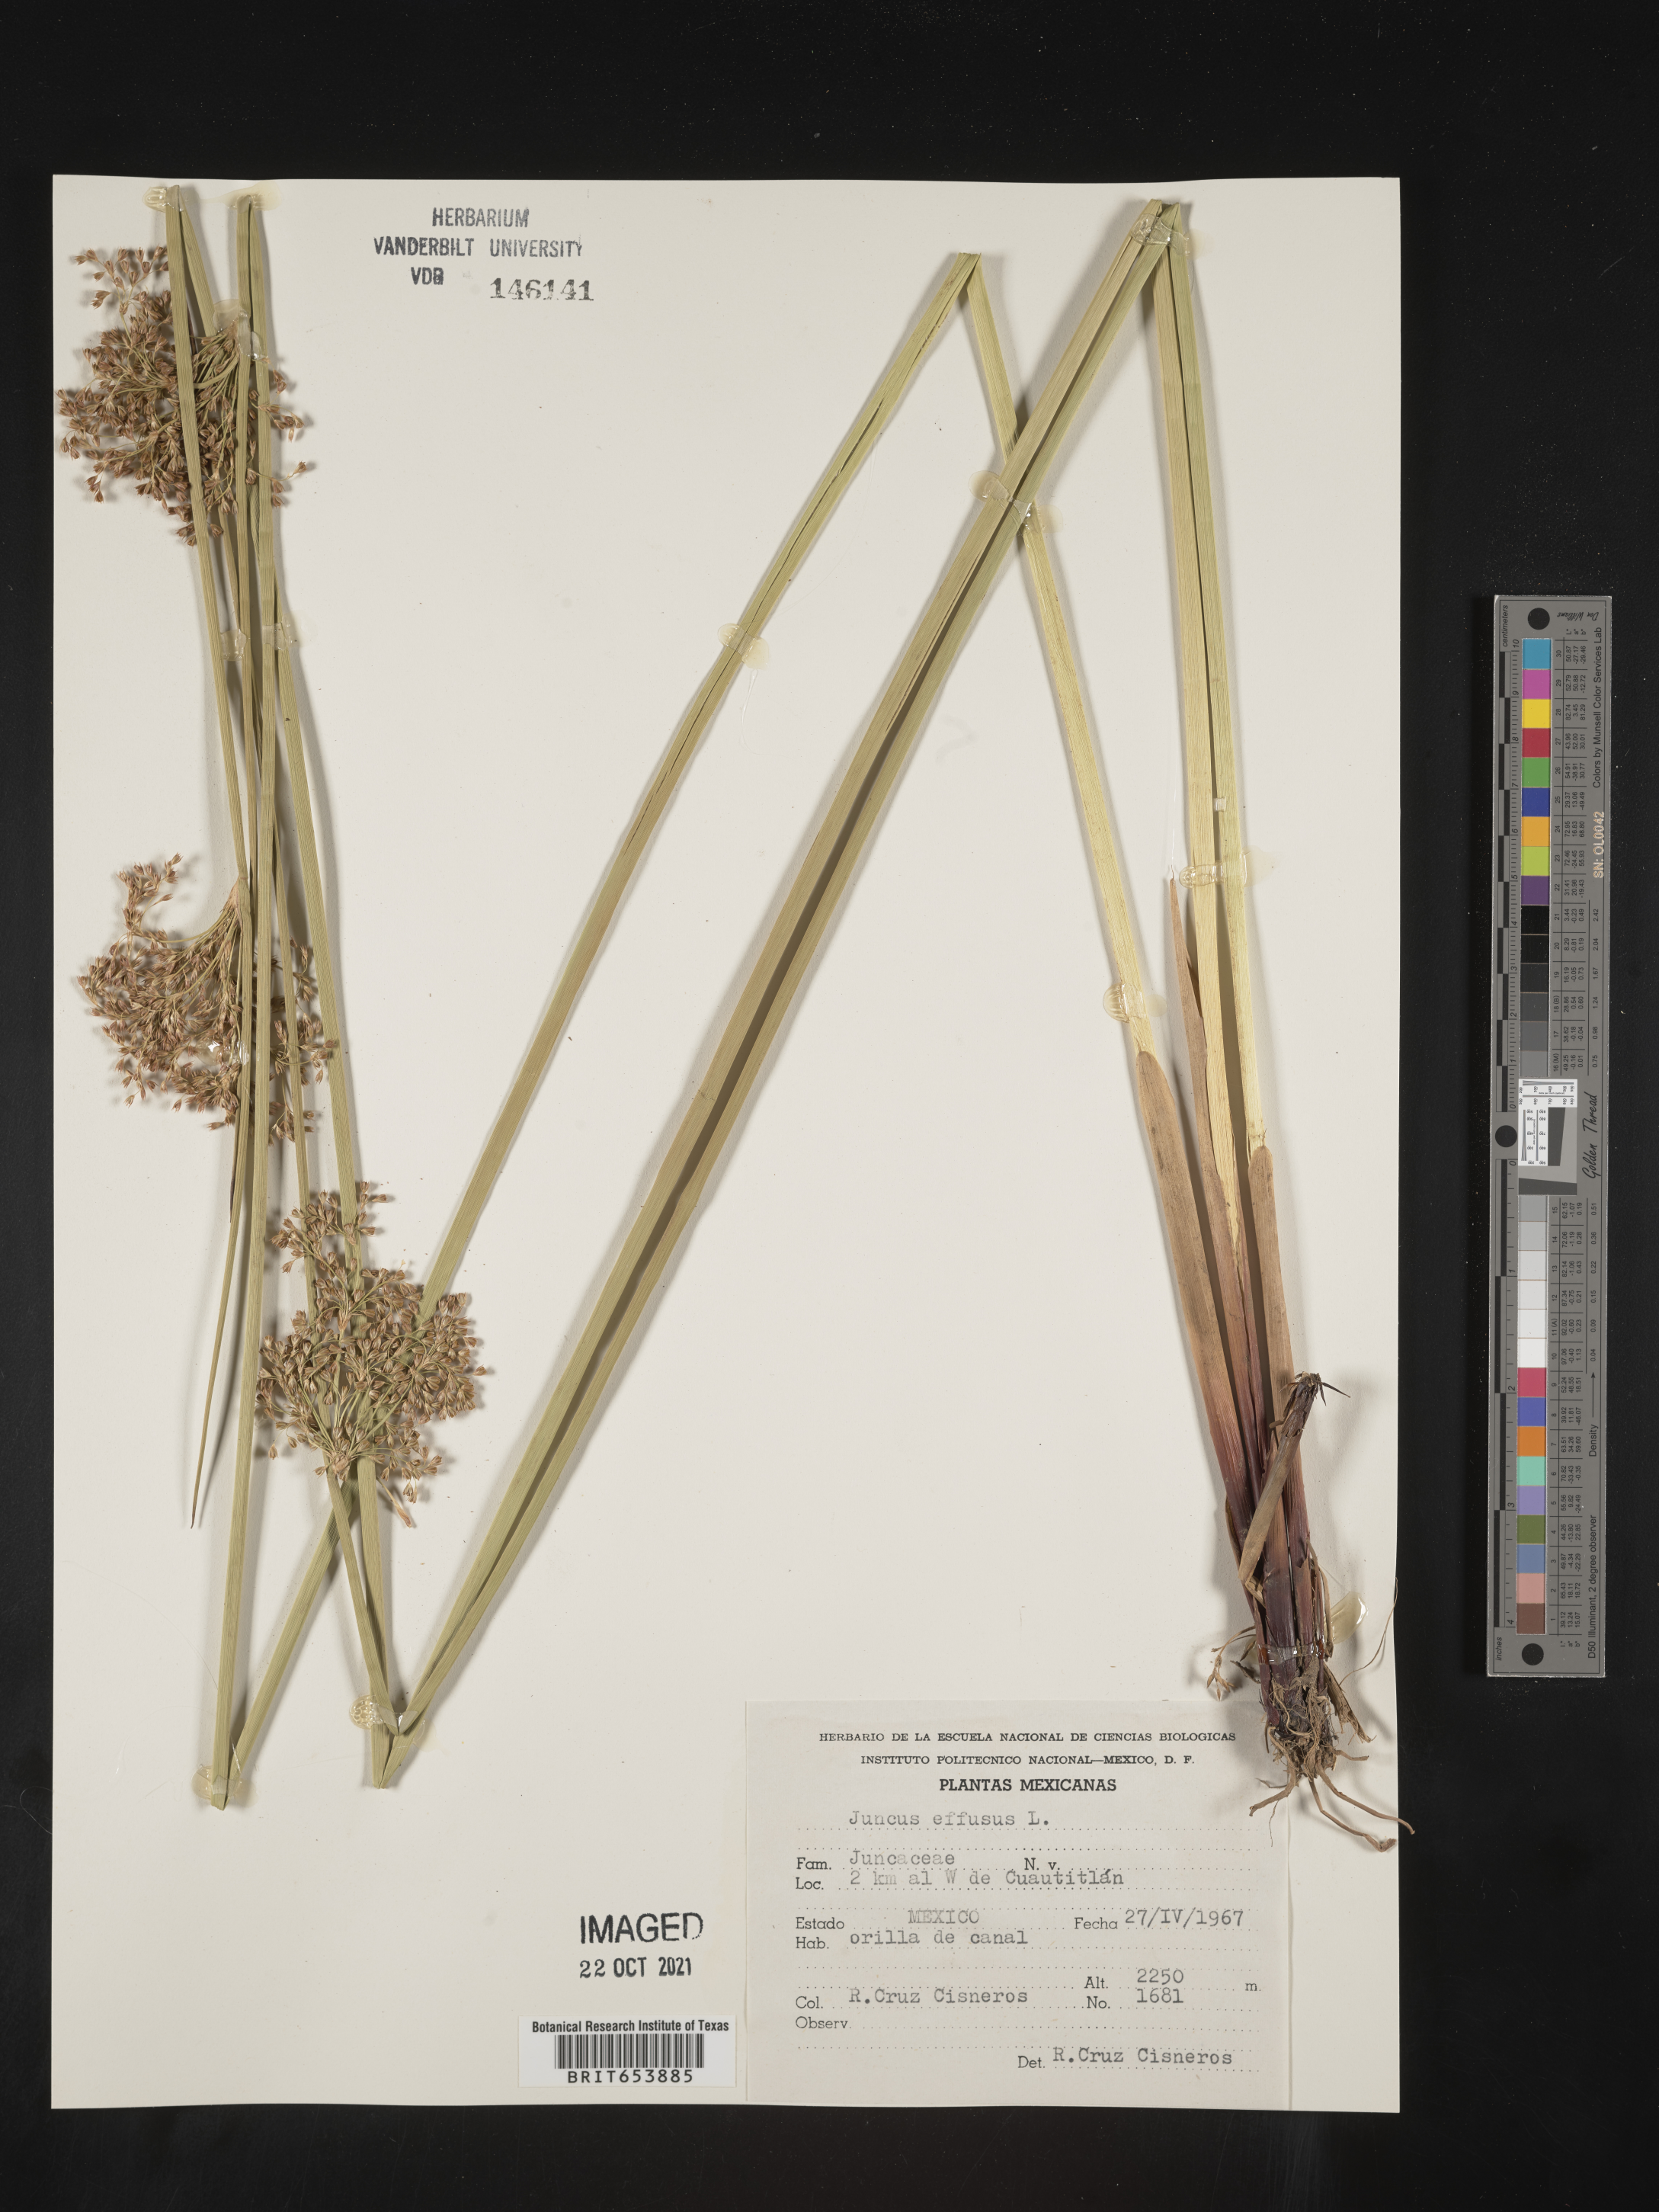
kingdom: Plantae
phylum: Tracheophyta
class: Liliopsida
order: Poales
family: Juncaceae
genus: Juncus
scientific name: Juncus
